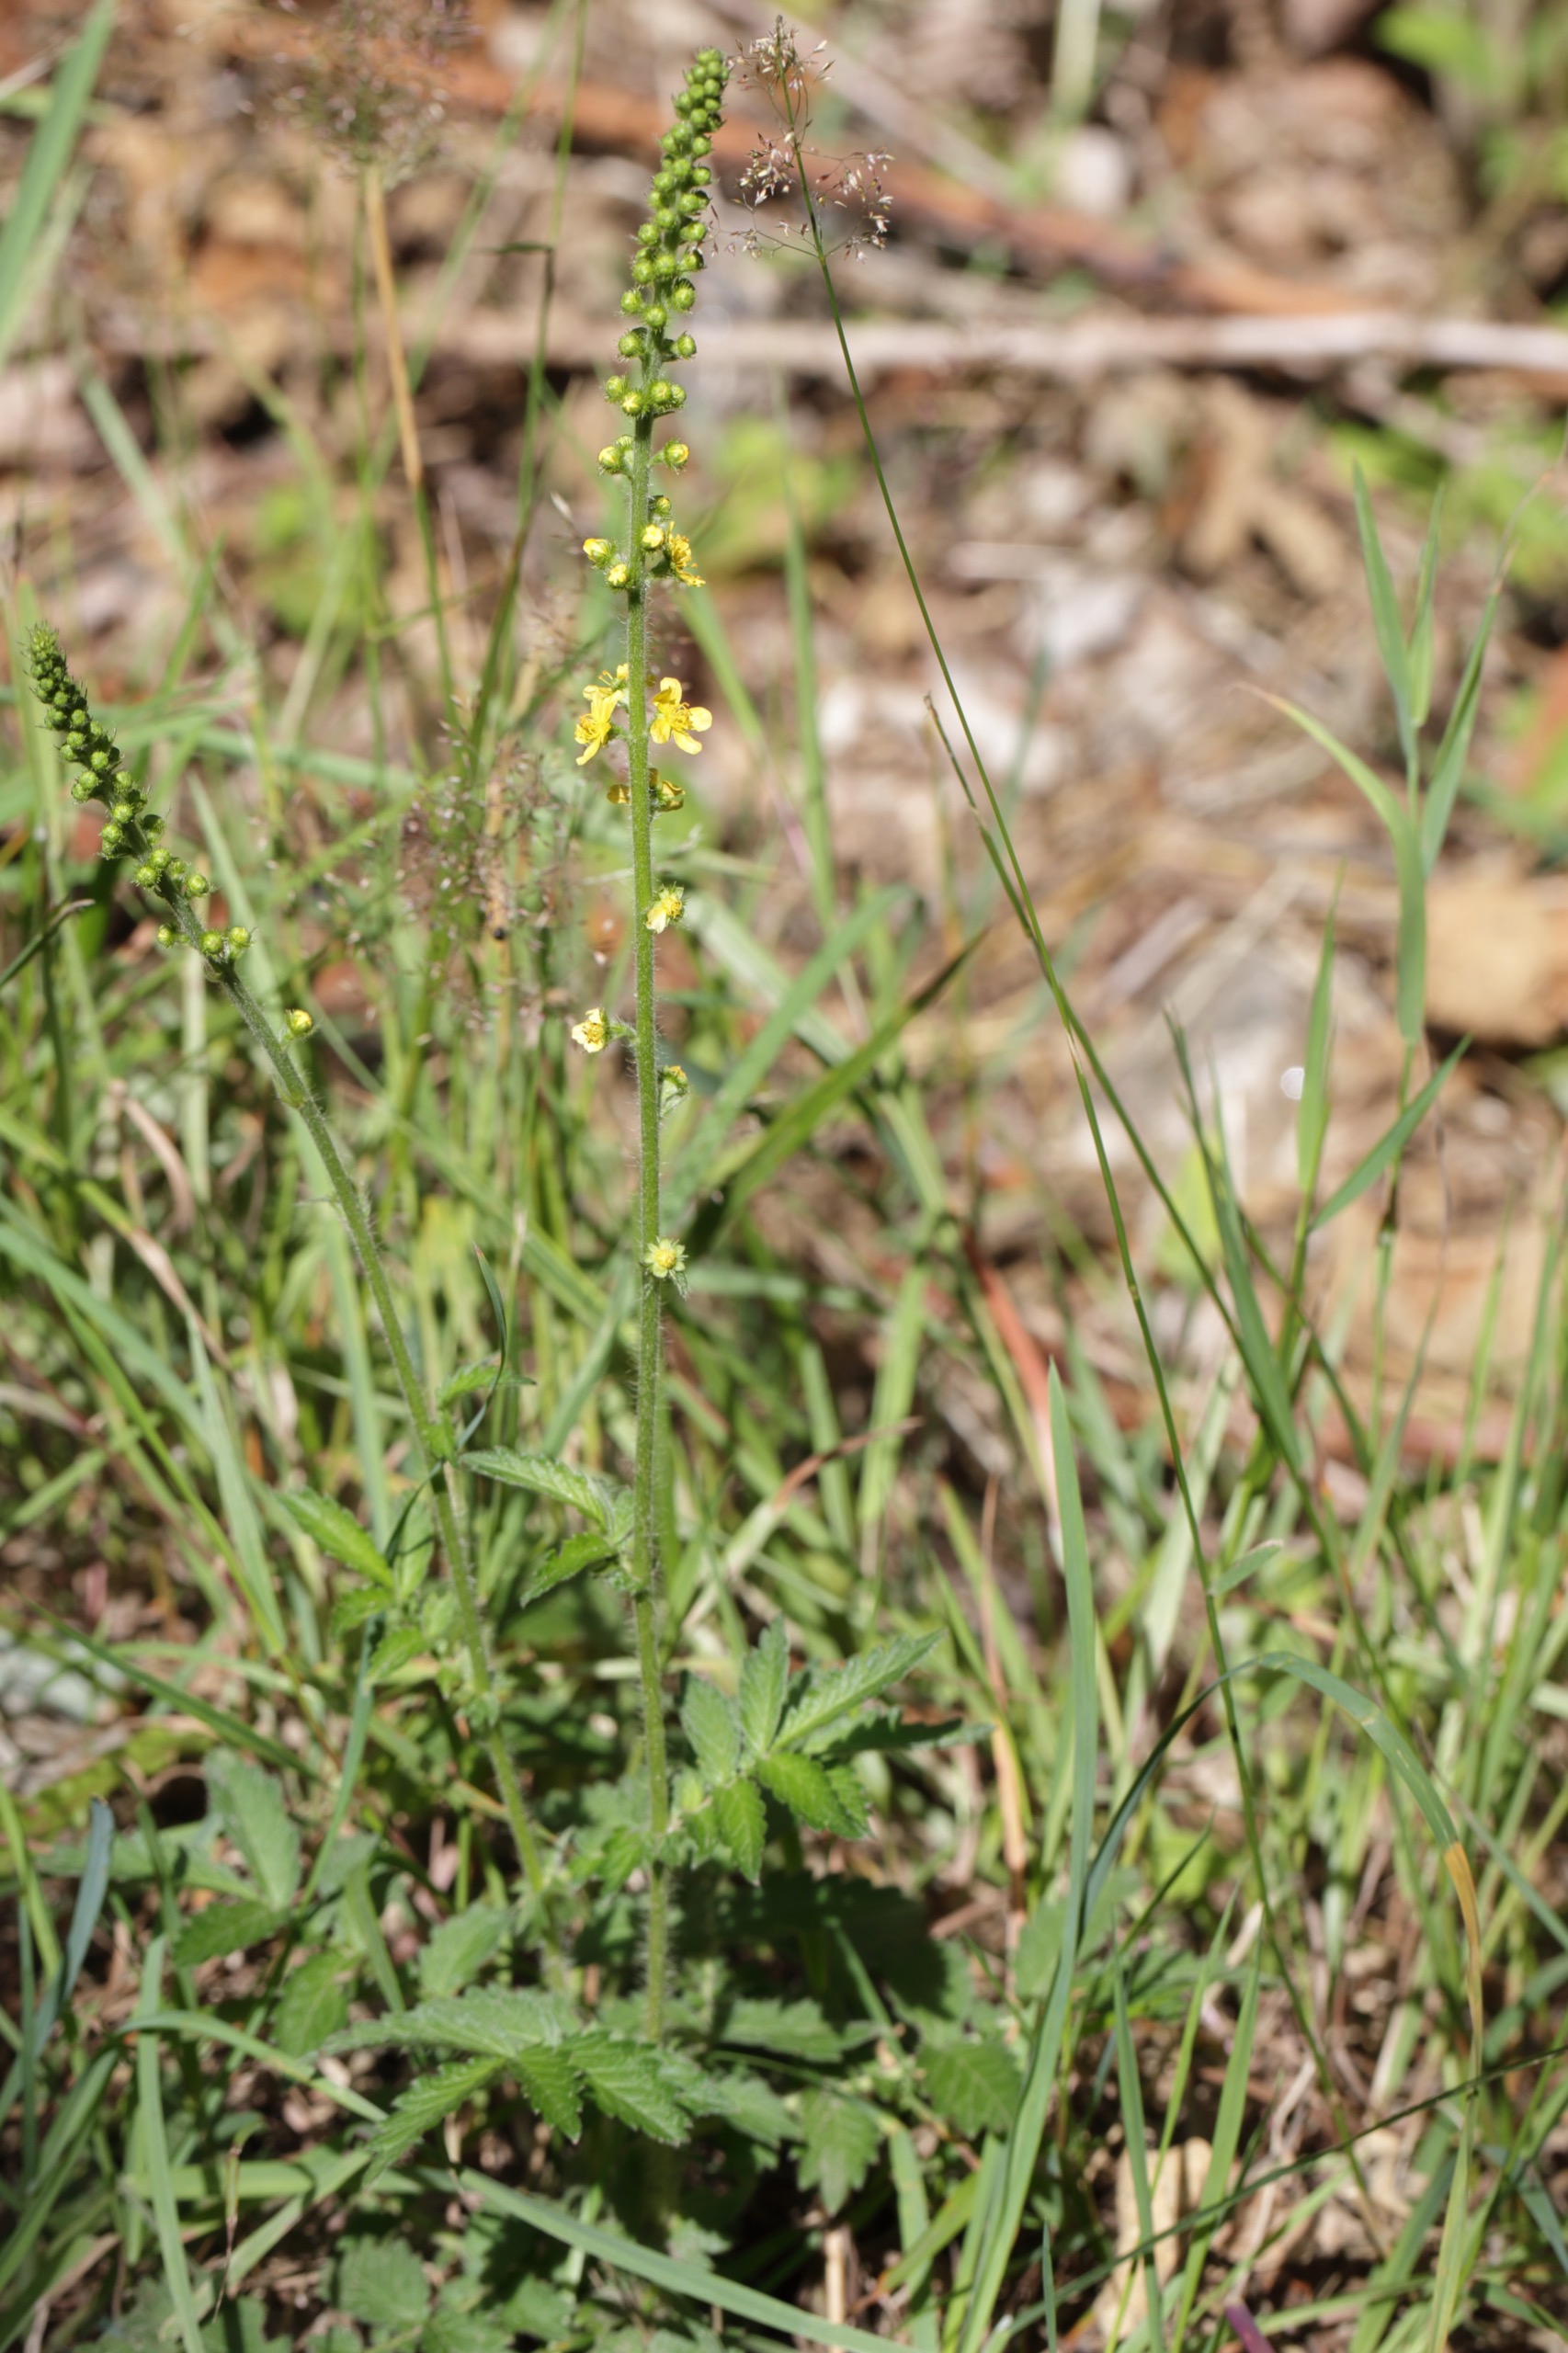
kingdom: Plantae
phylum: Tracheophyta
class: Magnoliopsida
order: Rosales
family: Rosaceae
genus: Agrimonia
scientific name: Agrimonia eupatoria
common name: Almindelig agermåne
